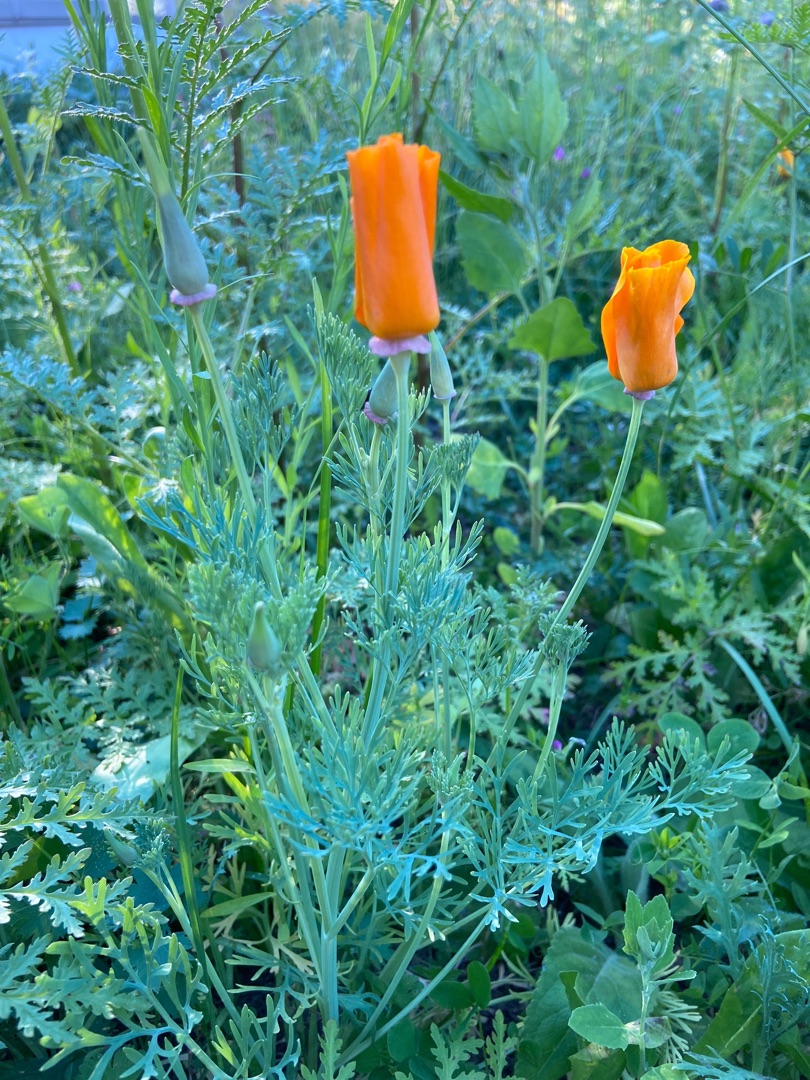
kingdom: Plantae
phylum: Tracheophyta
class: Magnoliopsida
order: Ranunculales
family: Papaveraceae
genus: Eschscholzia
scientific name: Eschscholzia californica
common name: Guldvalmue
